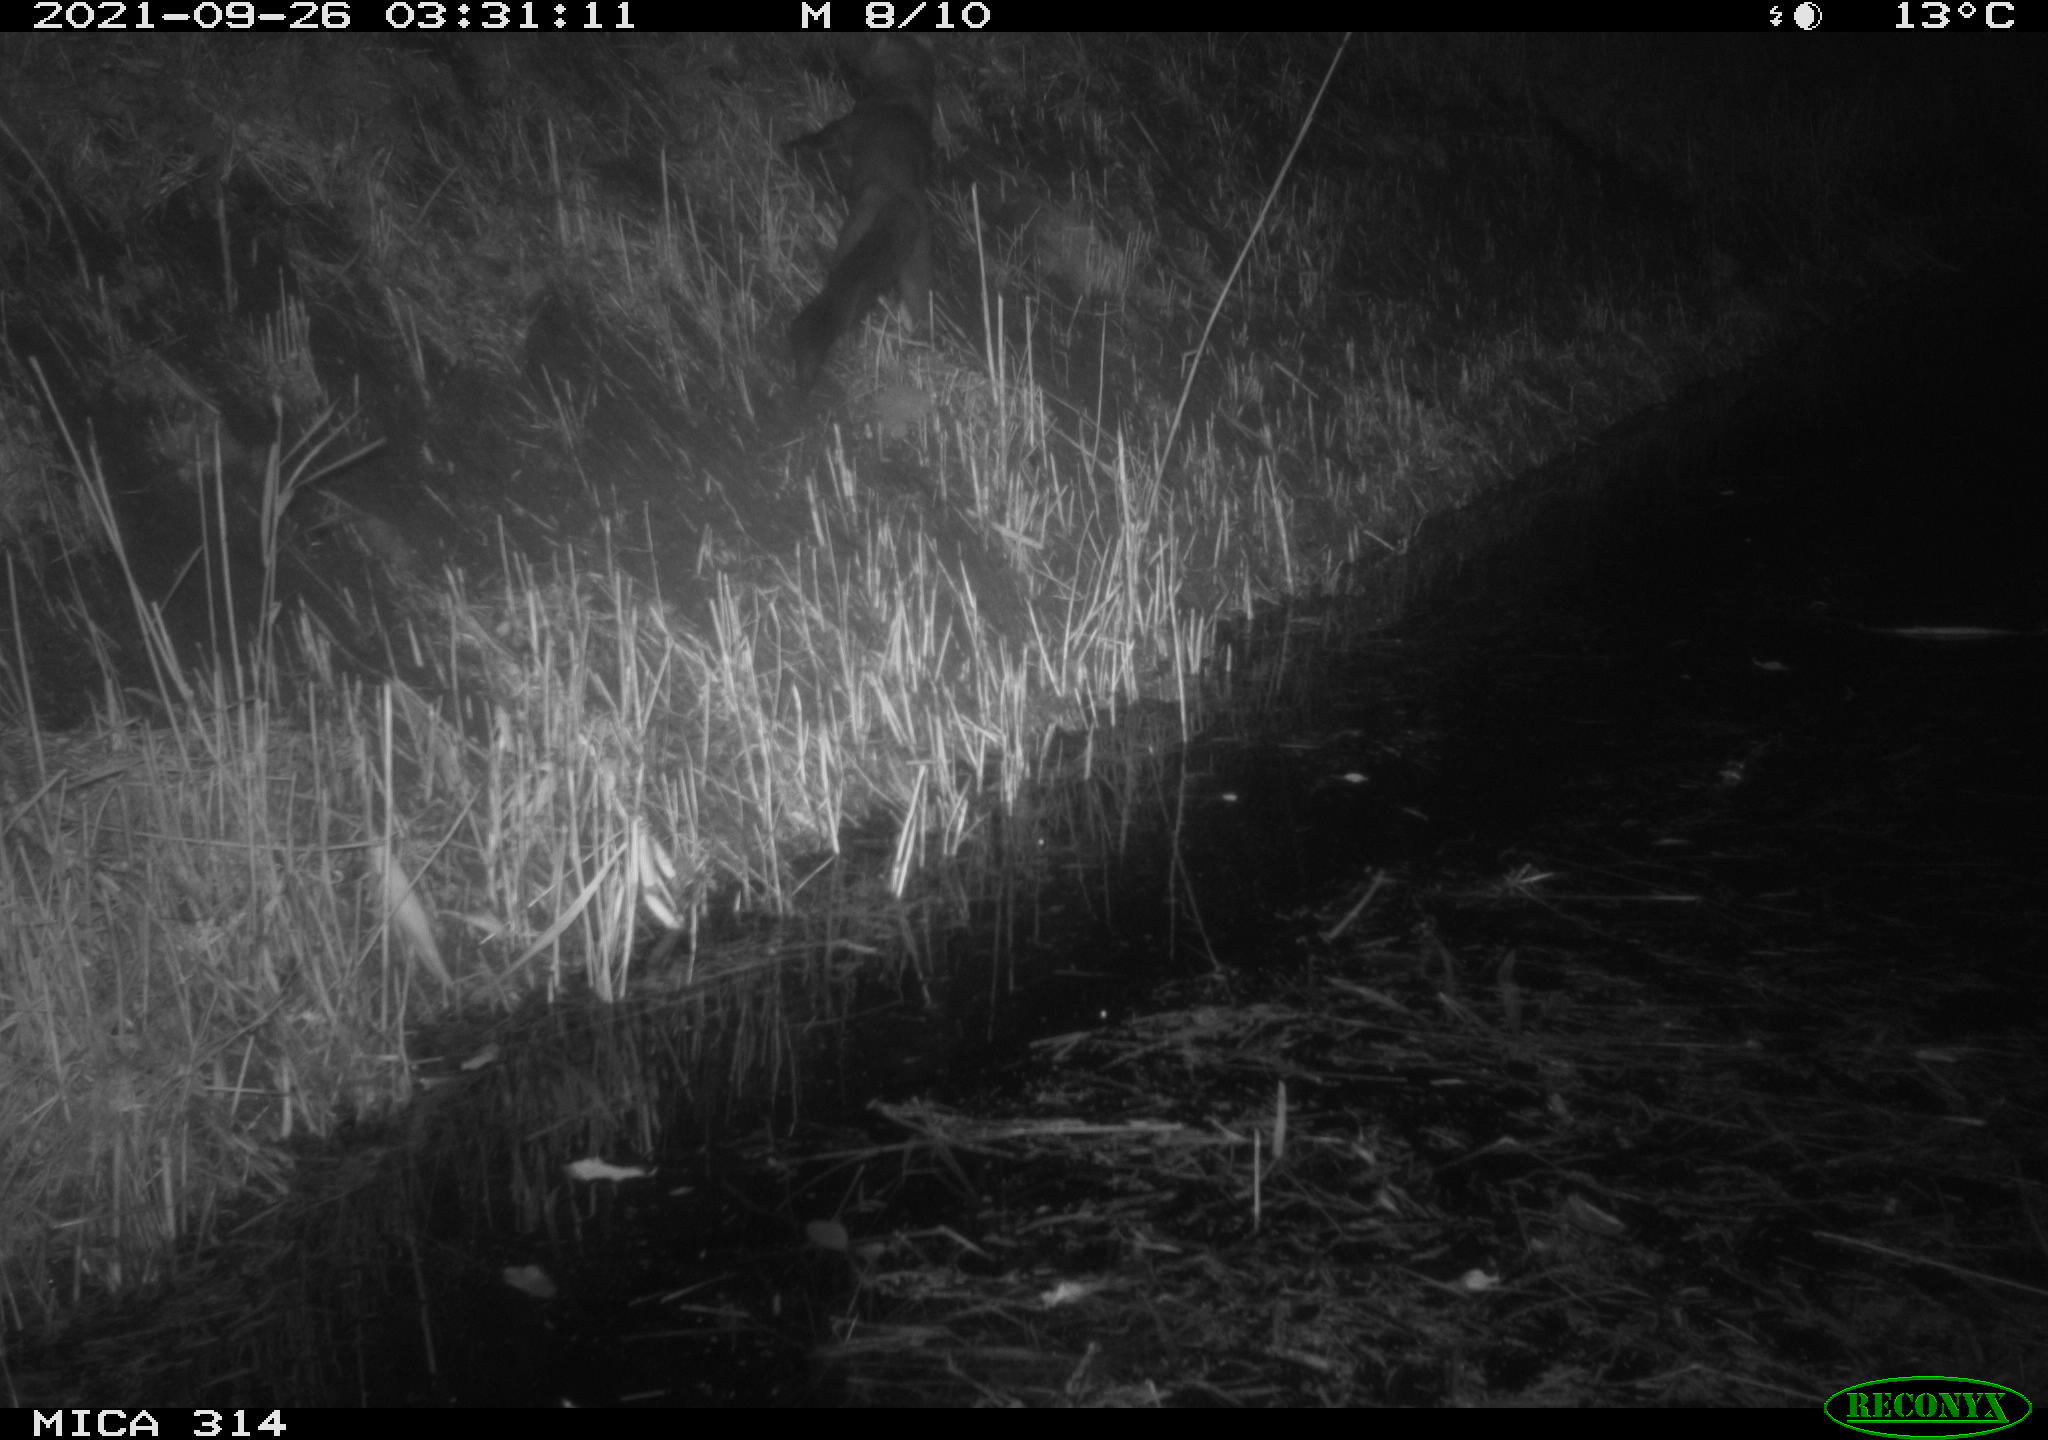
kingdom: Animalia
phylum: Chordata
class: Mammalia
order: Carnivora
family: Mustelidae
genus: Martes
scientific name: Martes foina
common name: Beech marten
